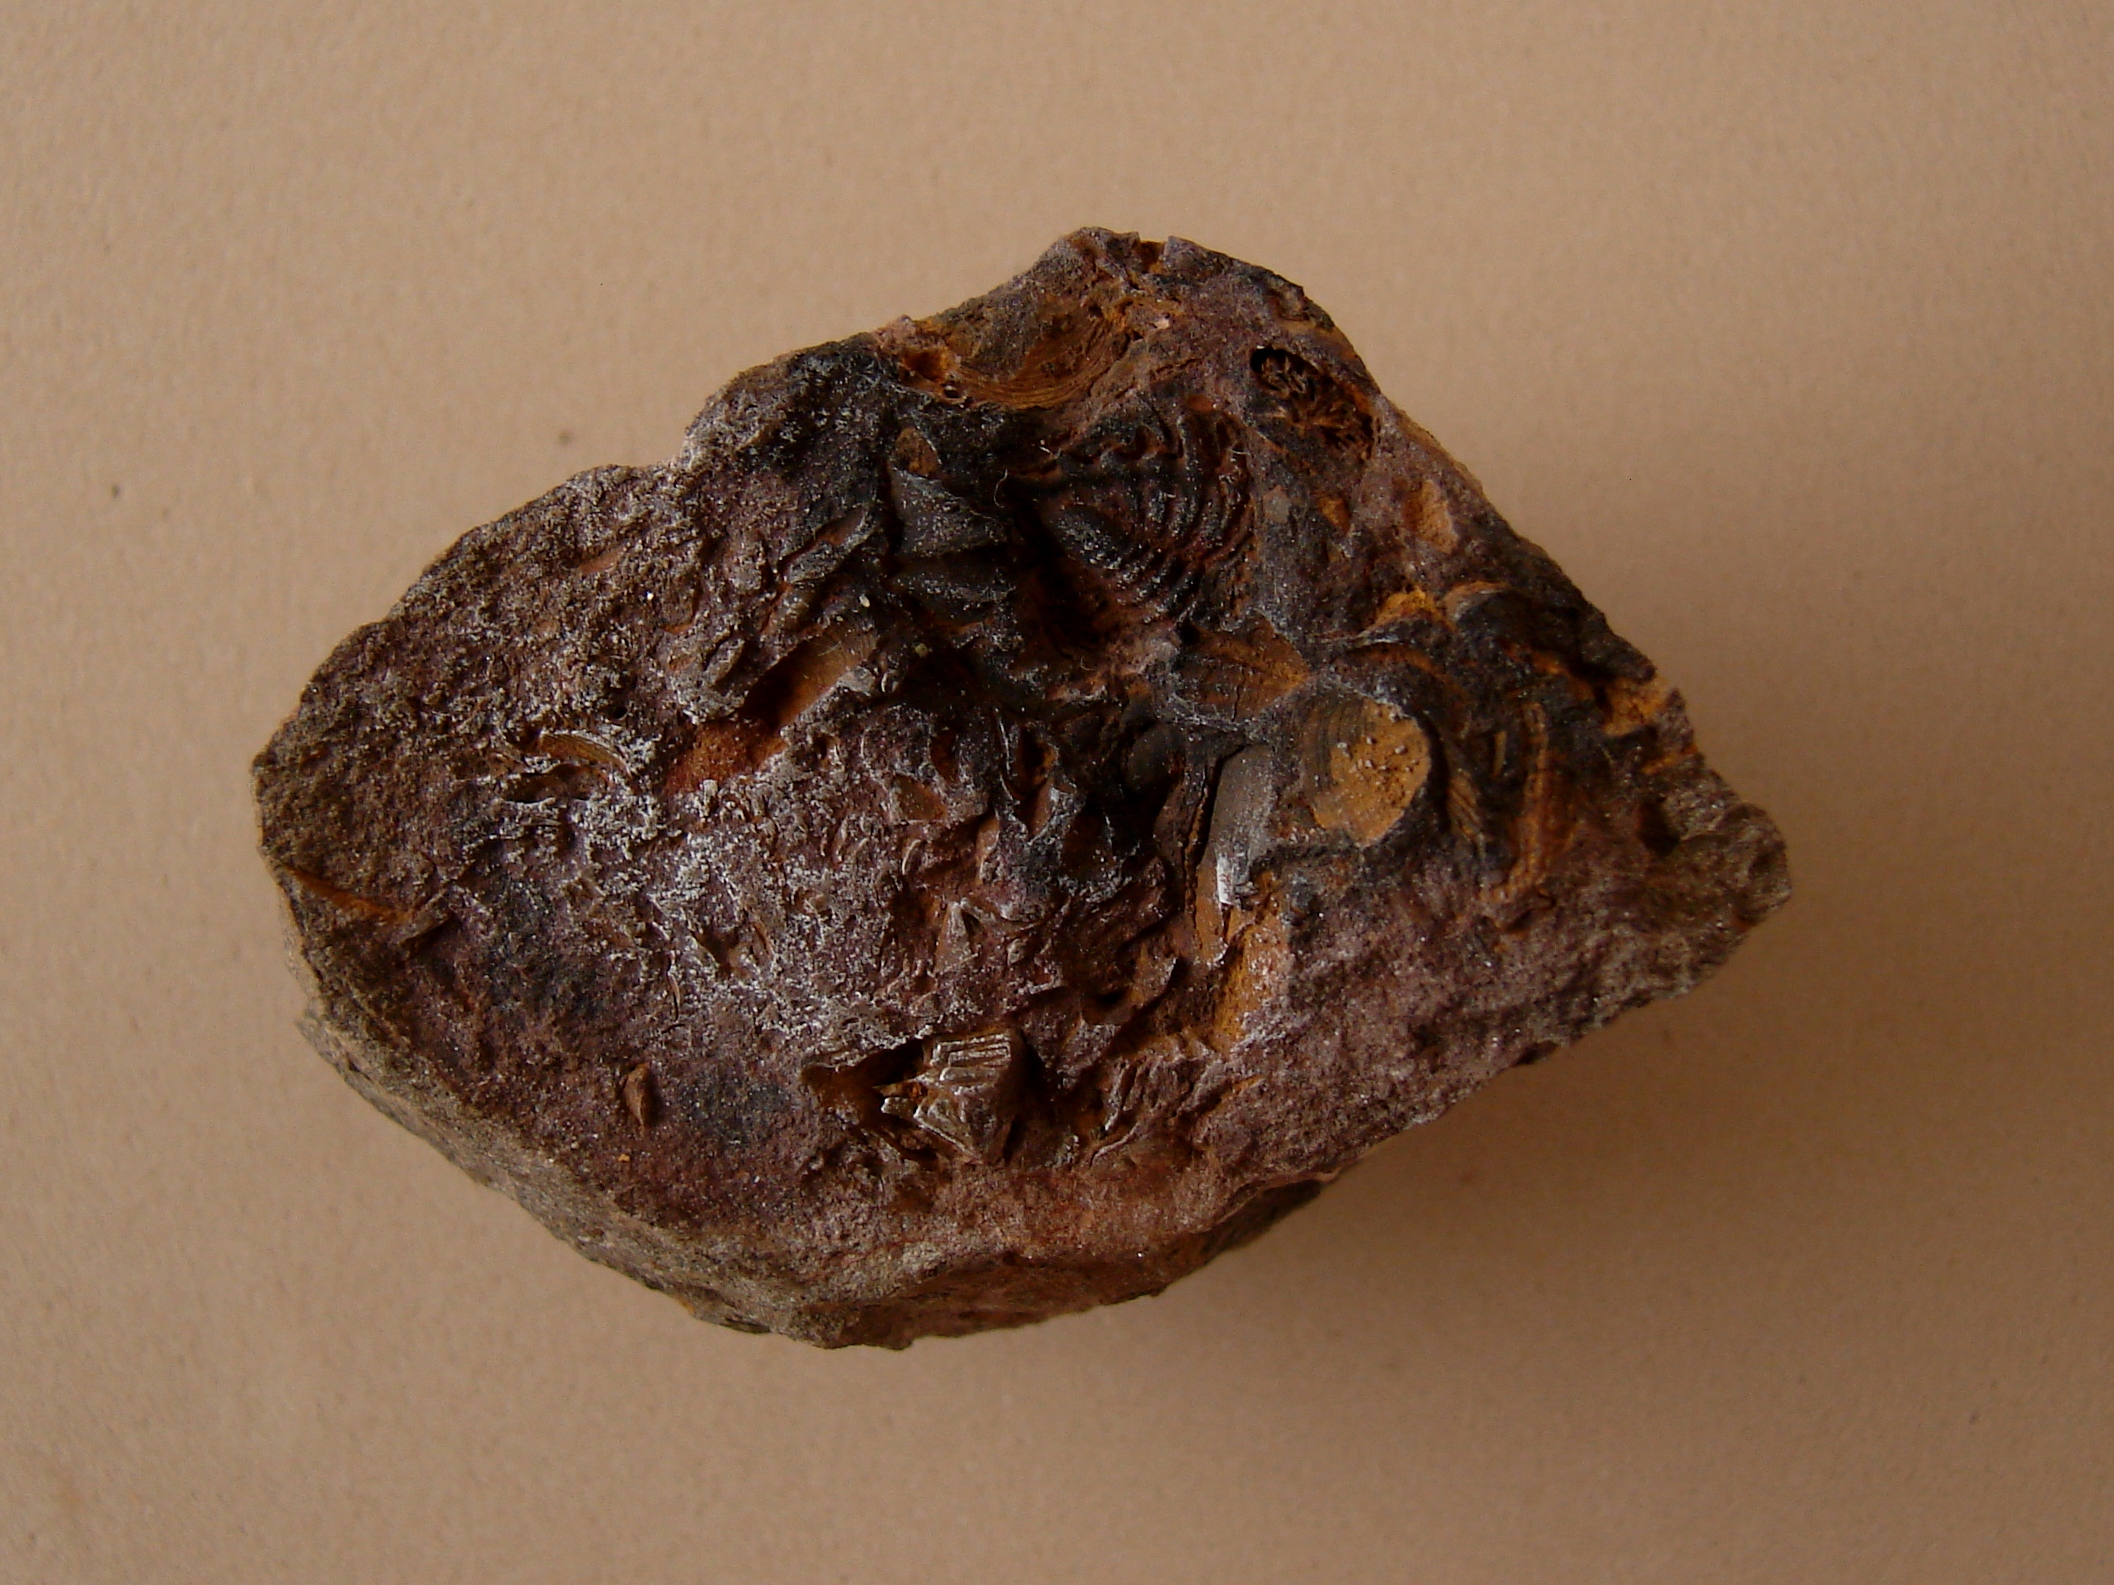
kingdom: Animalia
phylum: Arthropoda
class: Trilobita
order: Phacopida
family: Calmoniidae
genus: Treveropyge
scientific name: Treveropyge
